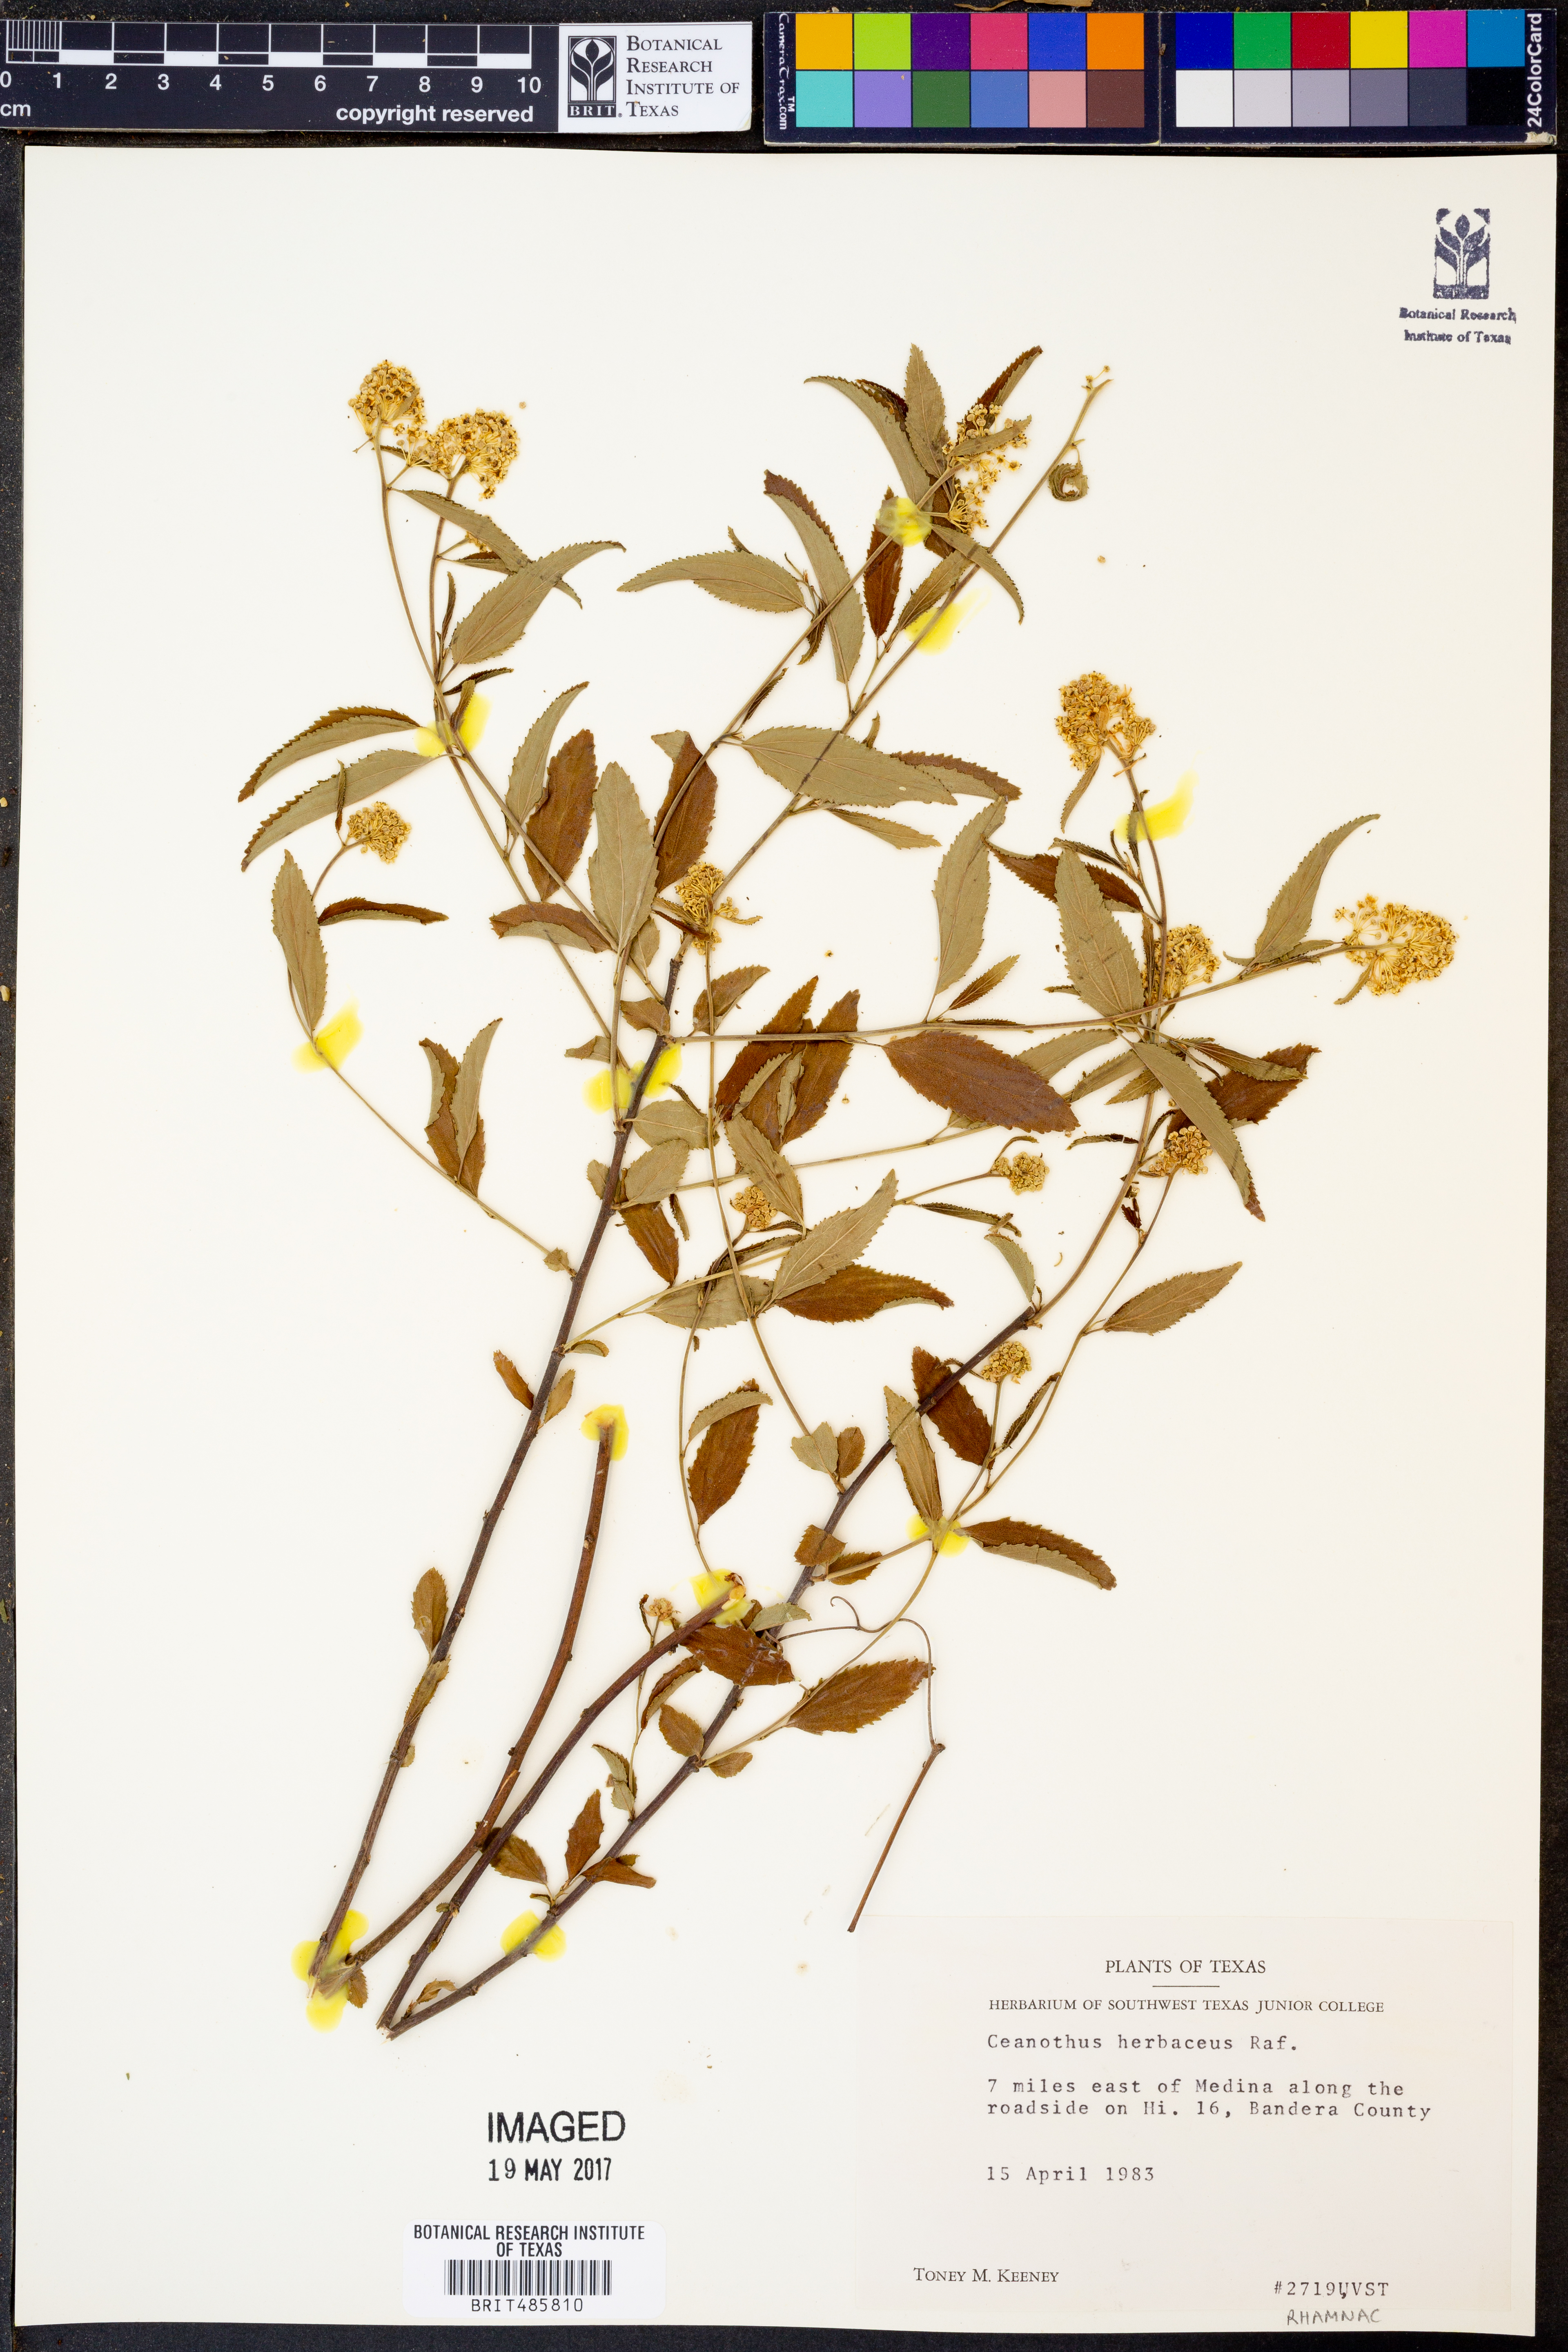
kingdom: Plantae
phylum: Tracheophyta
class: Magnoliopsida
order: Rosales
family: Rhamnaceae
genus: Ceanothus
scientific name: Ceanothus herbaceus
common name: Inland ceanothus
